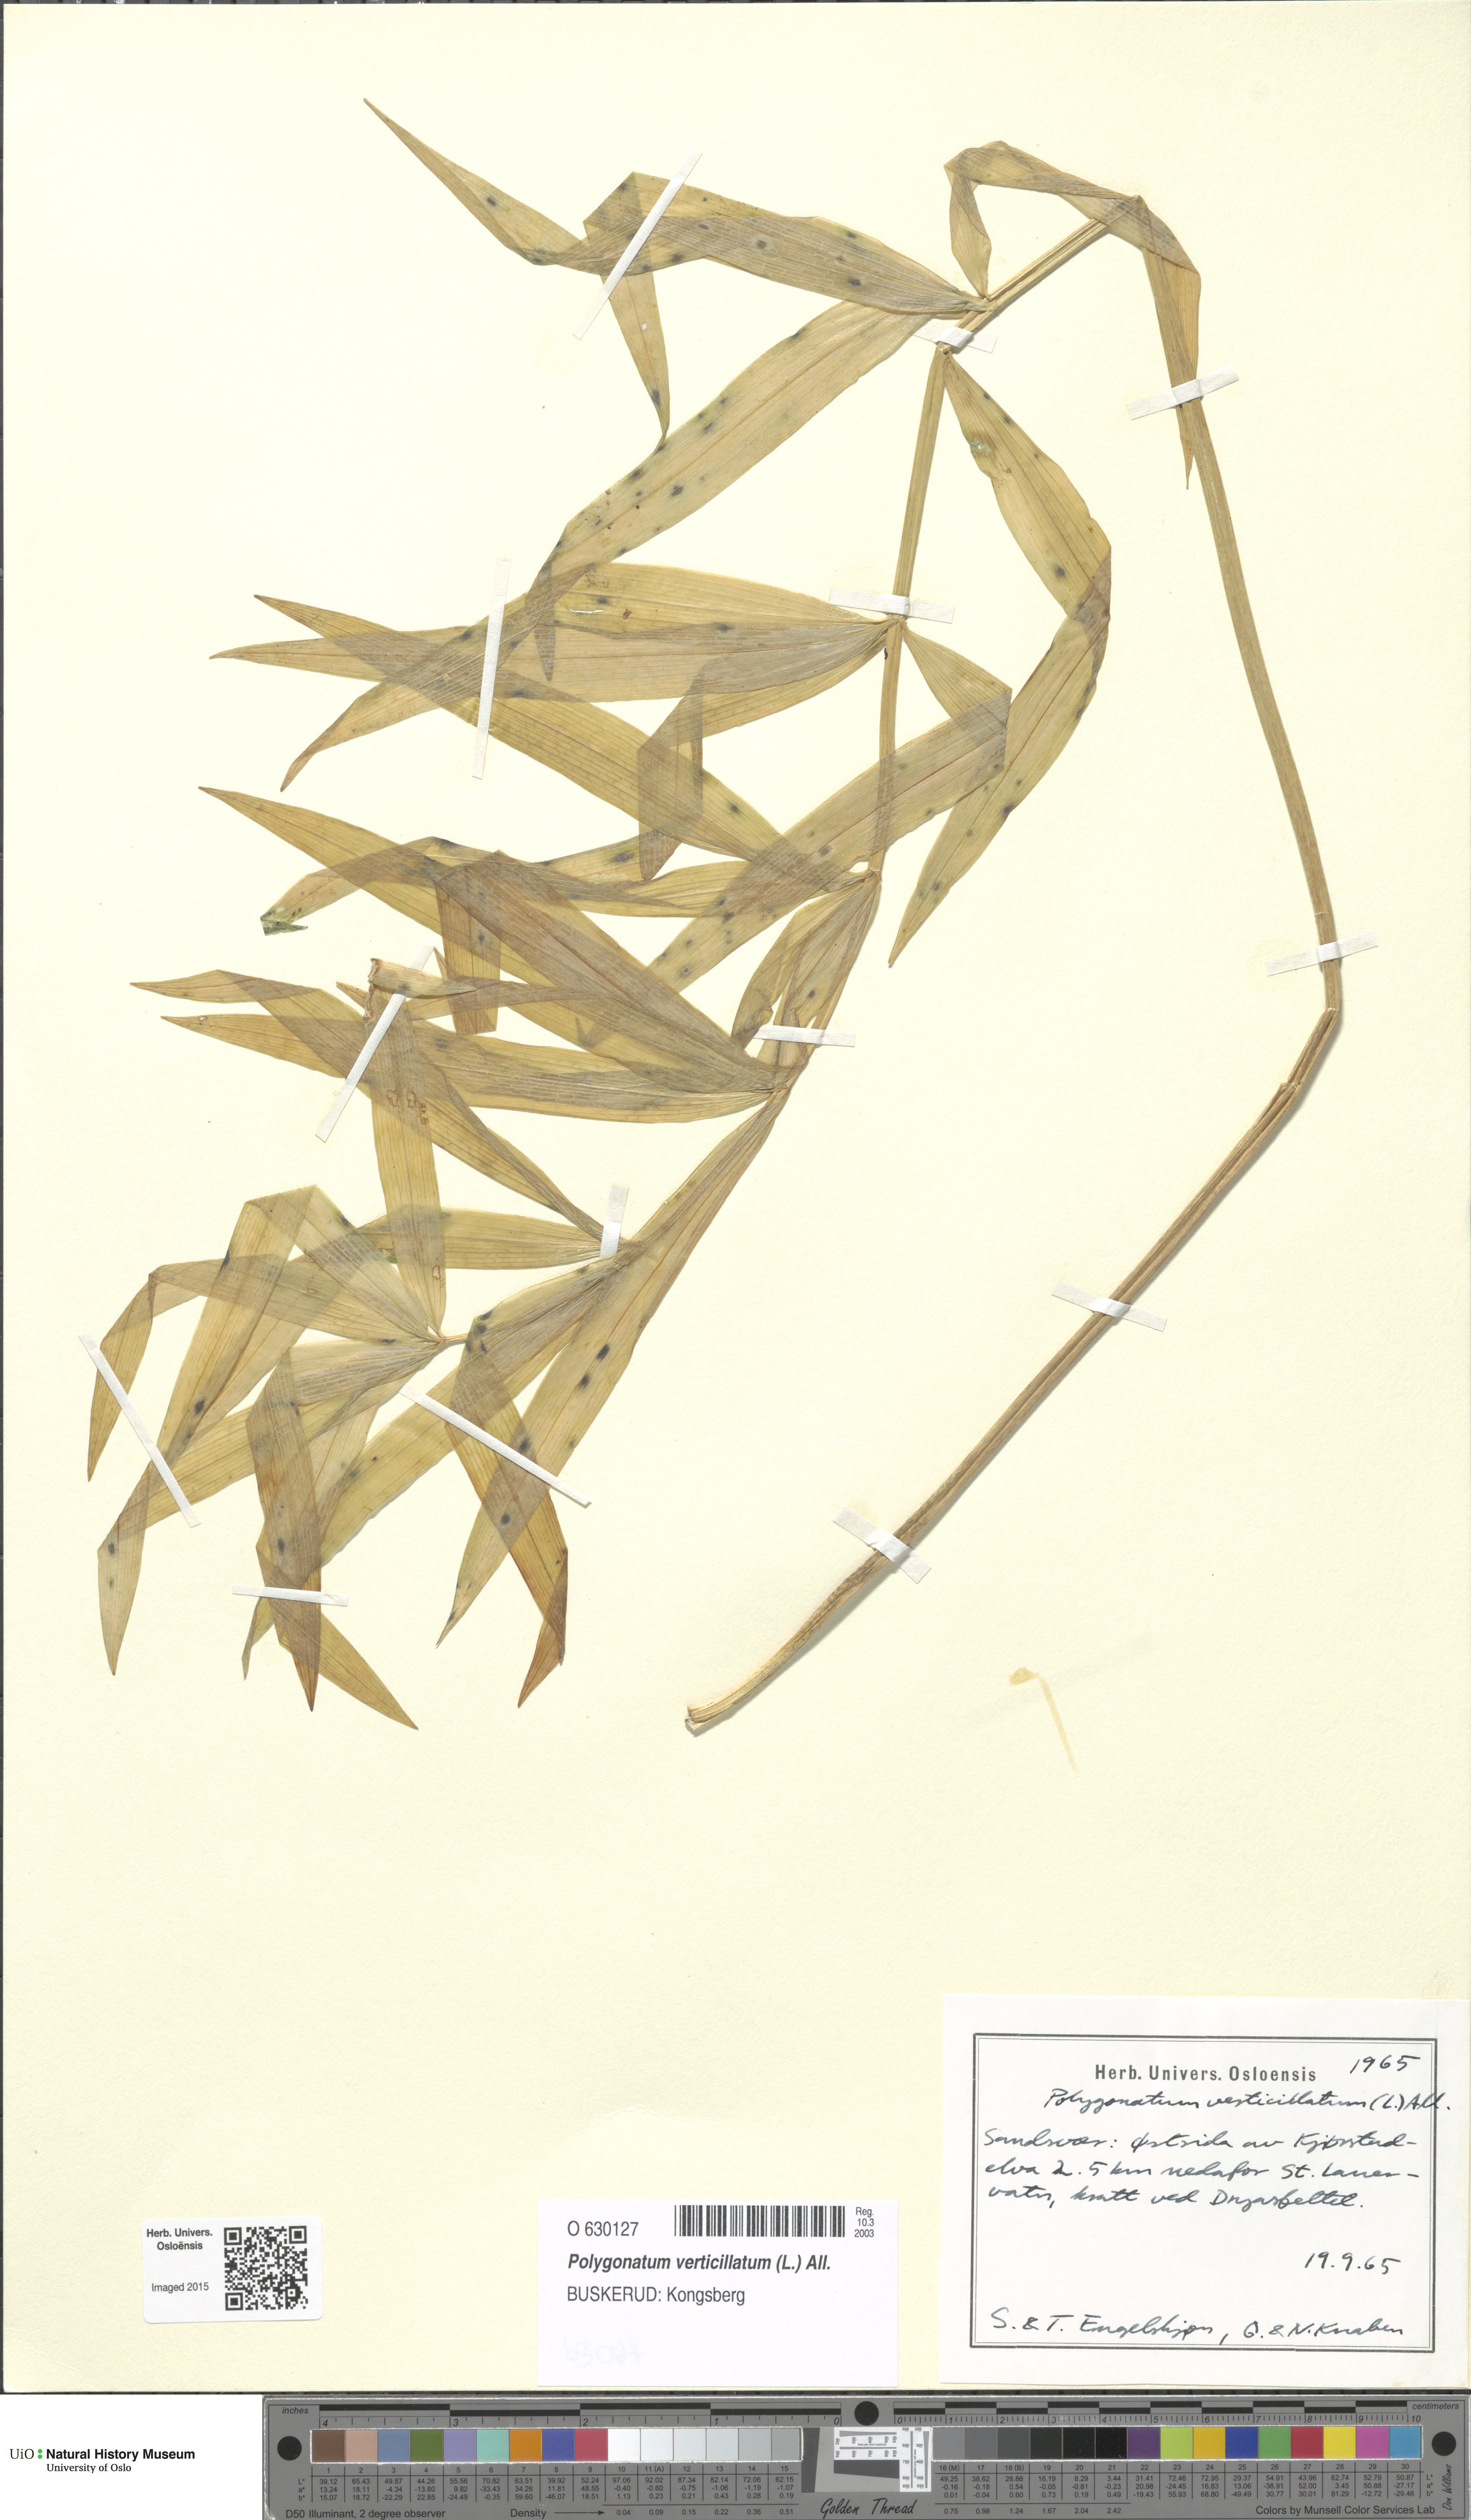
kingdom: Plantae
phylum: Tracheophyta
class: Liliopsida
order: Asparagales
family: Asparagaceae
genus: Polygonatum
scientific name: Polygonatum verticillatum
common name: Whorled solomon's-seal
